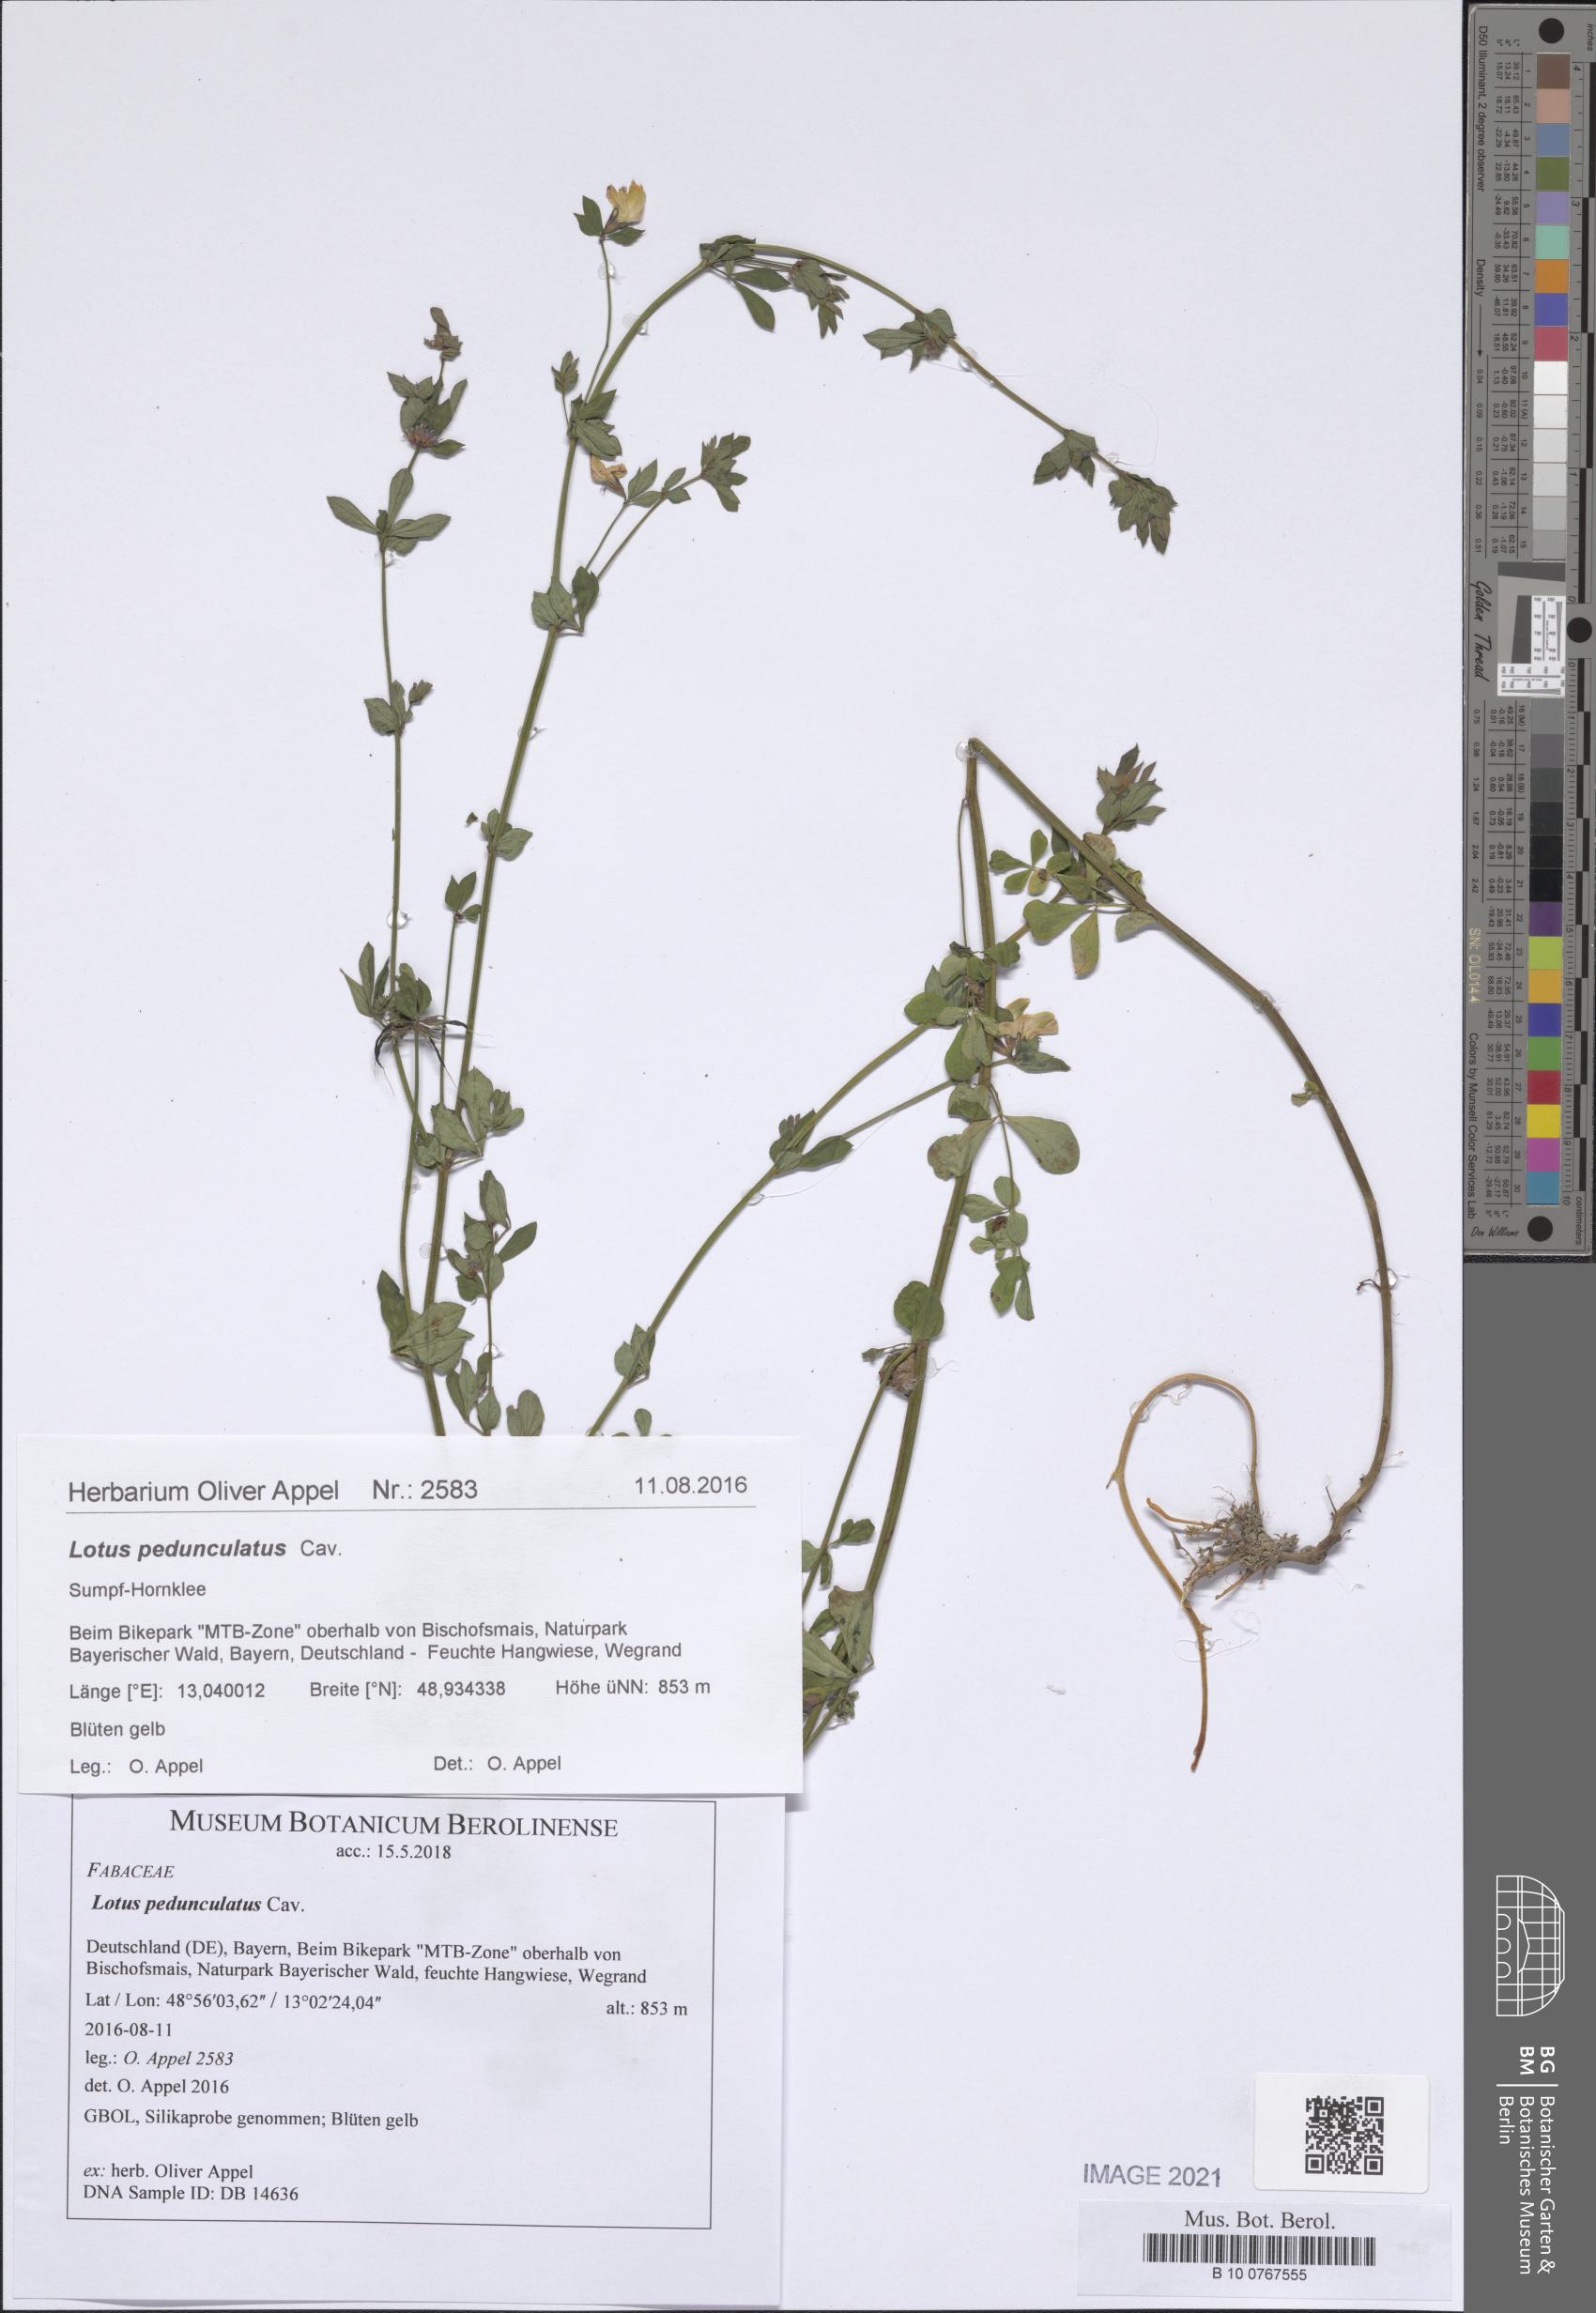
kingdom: Plantae
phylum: Tracheophyta
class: Magnoliopsida
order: Fabales
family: Fabaceae
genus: Lotus
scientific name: Lotus pedunculatus
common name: Greater birdsfoot-trefoil
